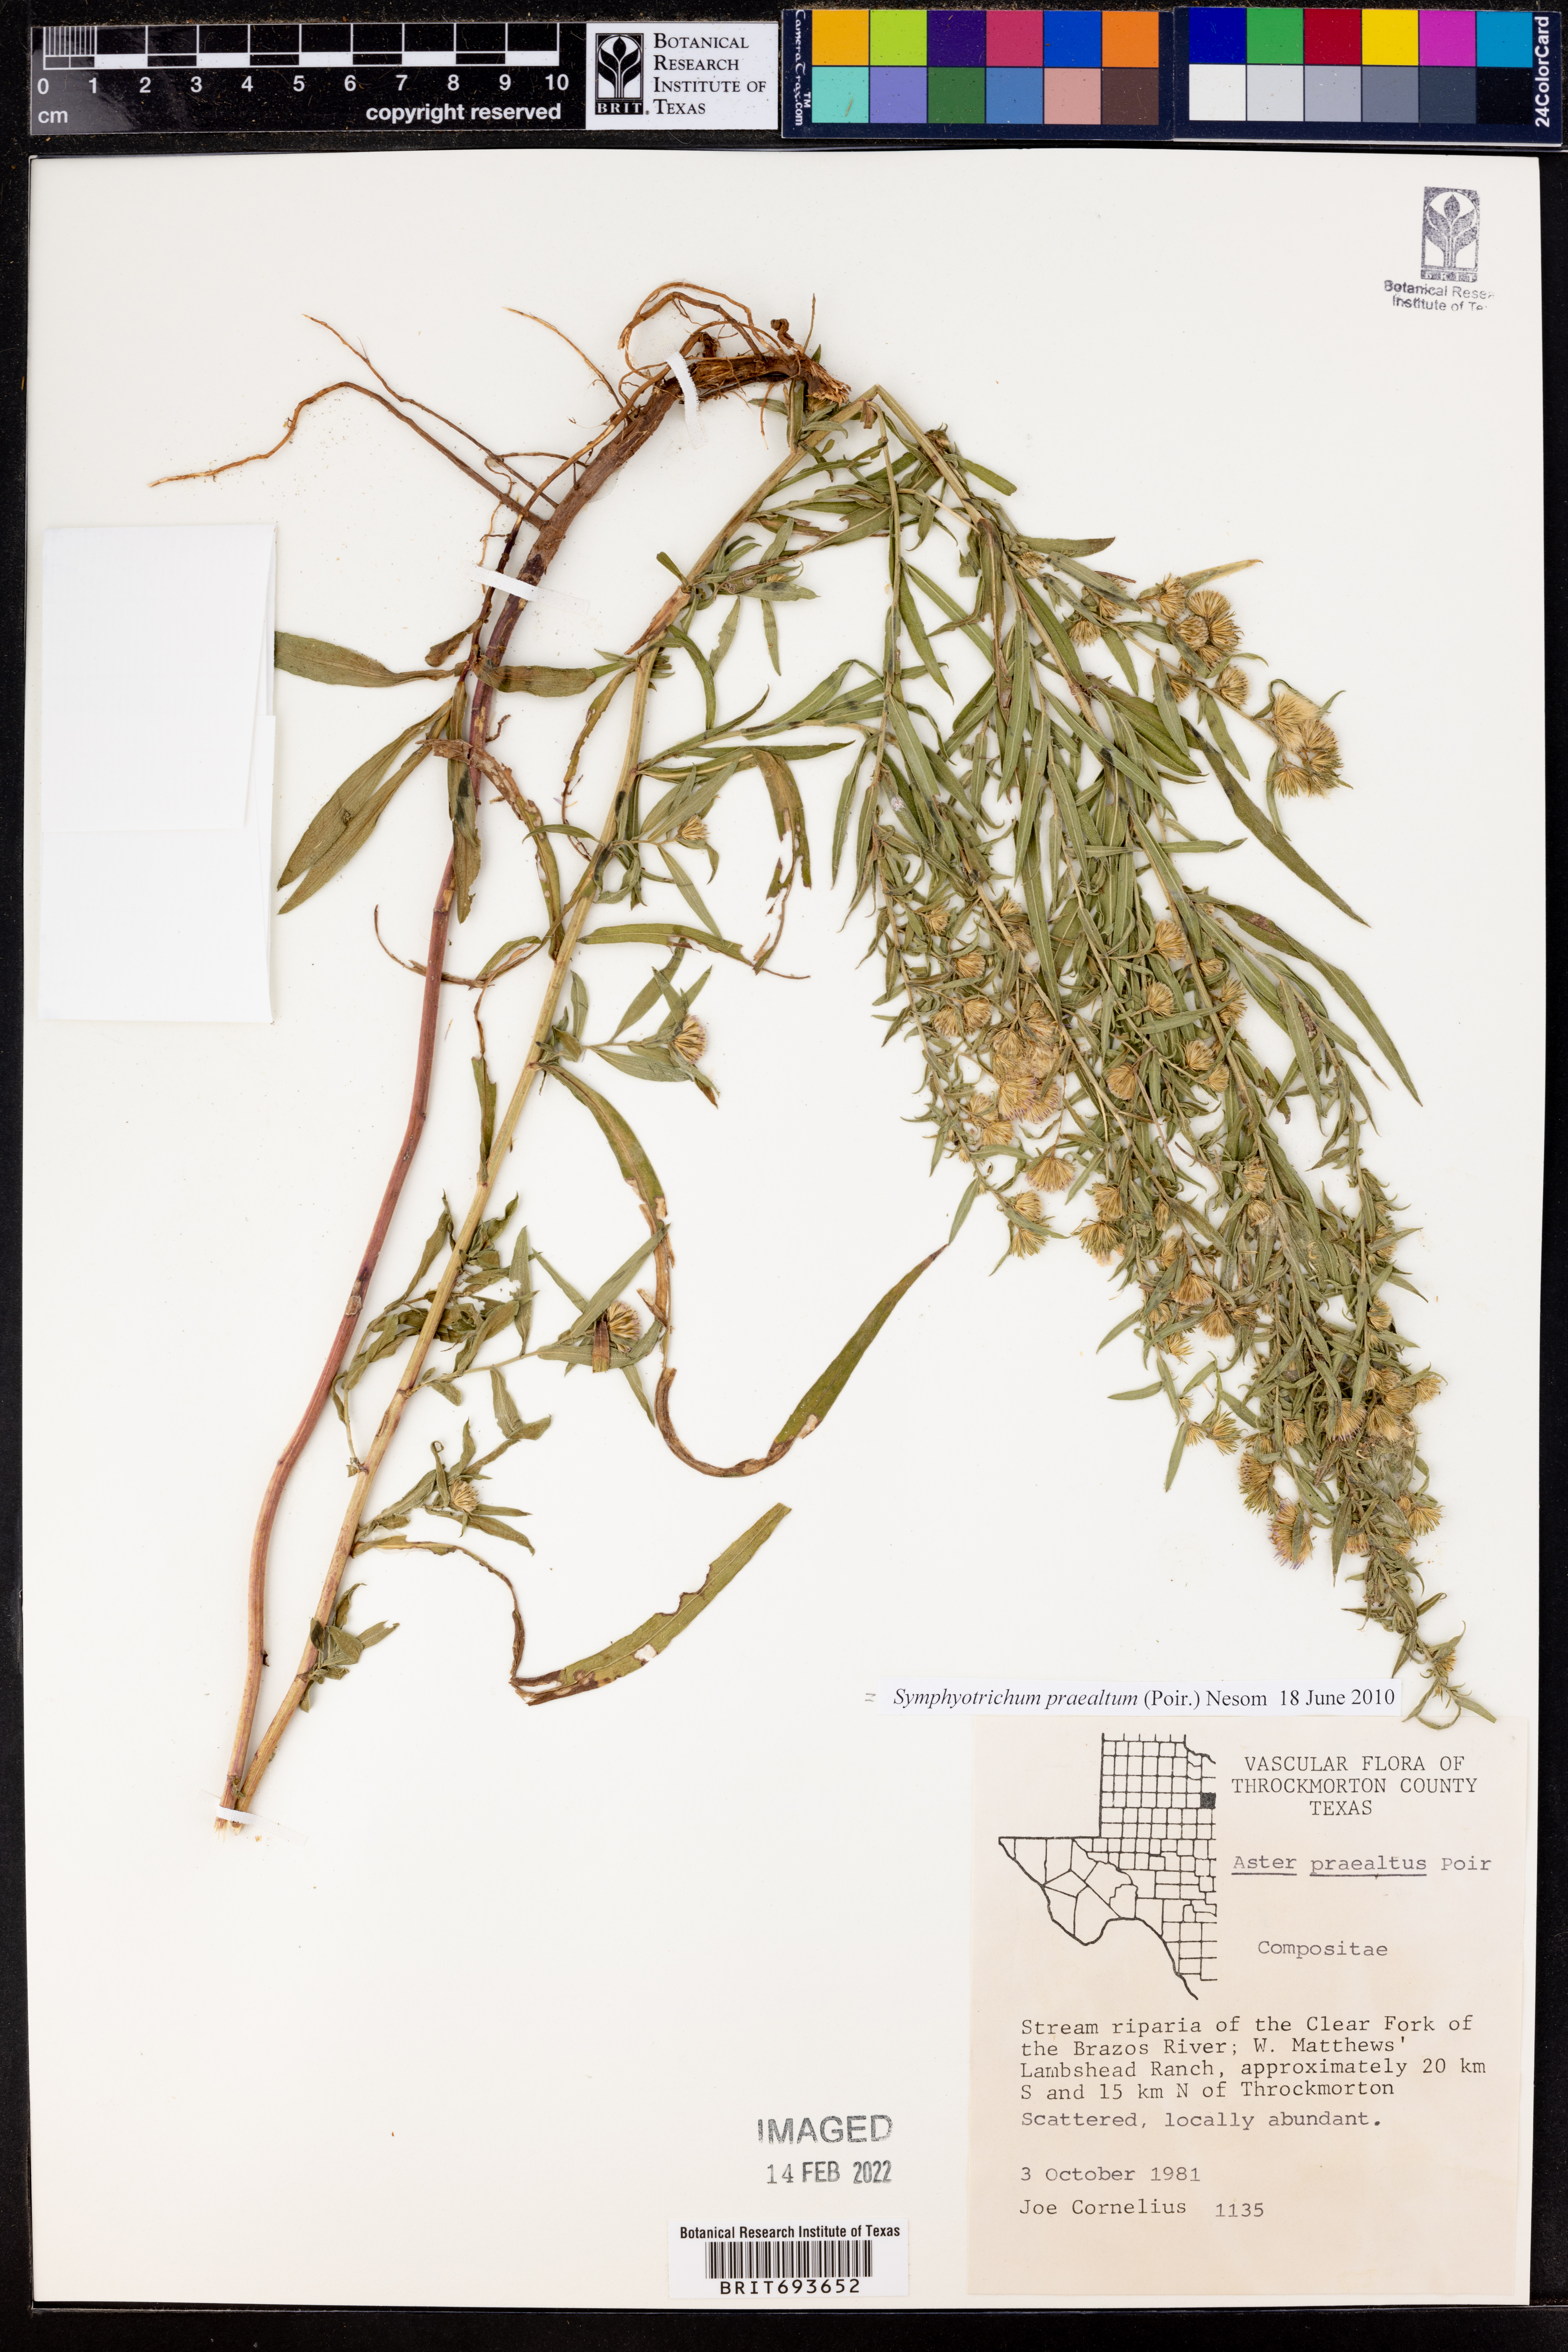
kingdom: Plantae
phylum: Tracheophyta
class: Magnoliopsida
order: Asterales
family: Asteraceae
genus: Symphyotrichum
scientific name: Symphyotrichum praealtum
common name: Willow aster
